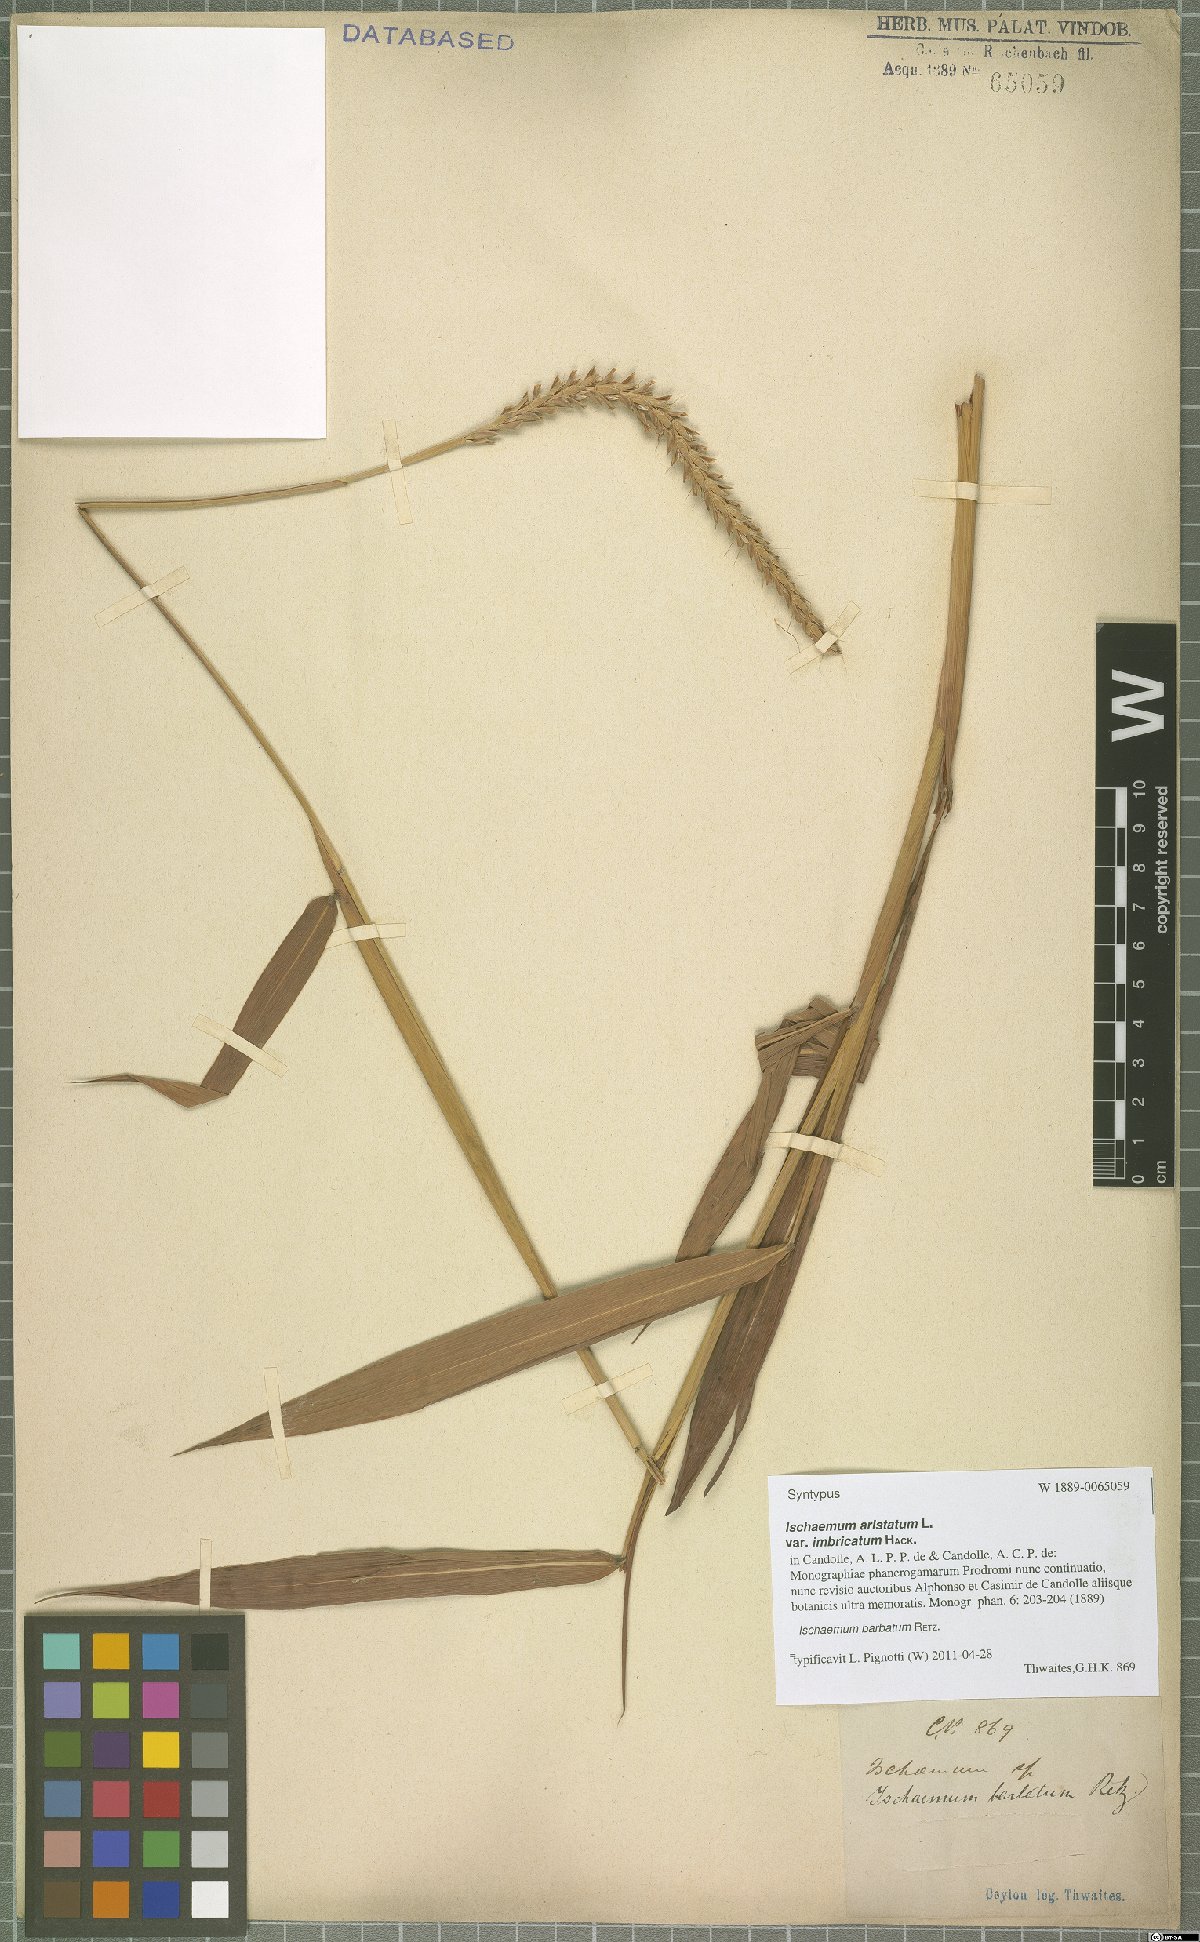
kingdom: Plantae
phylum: Tracheophyta
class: Liliopsida
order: Poales
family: Poaceae
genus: Ischaemum
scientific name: Ischaemum barbatum
